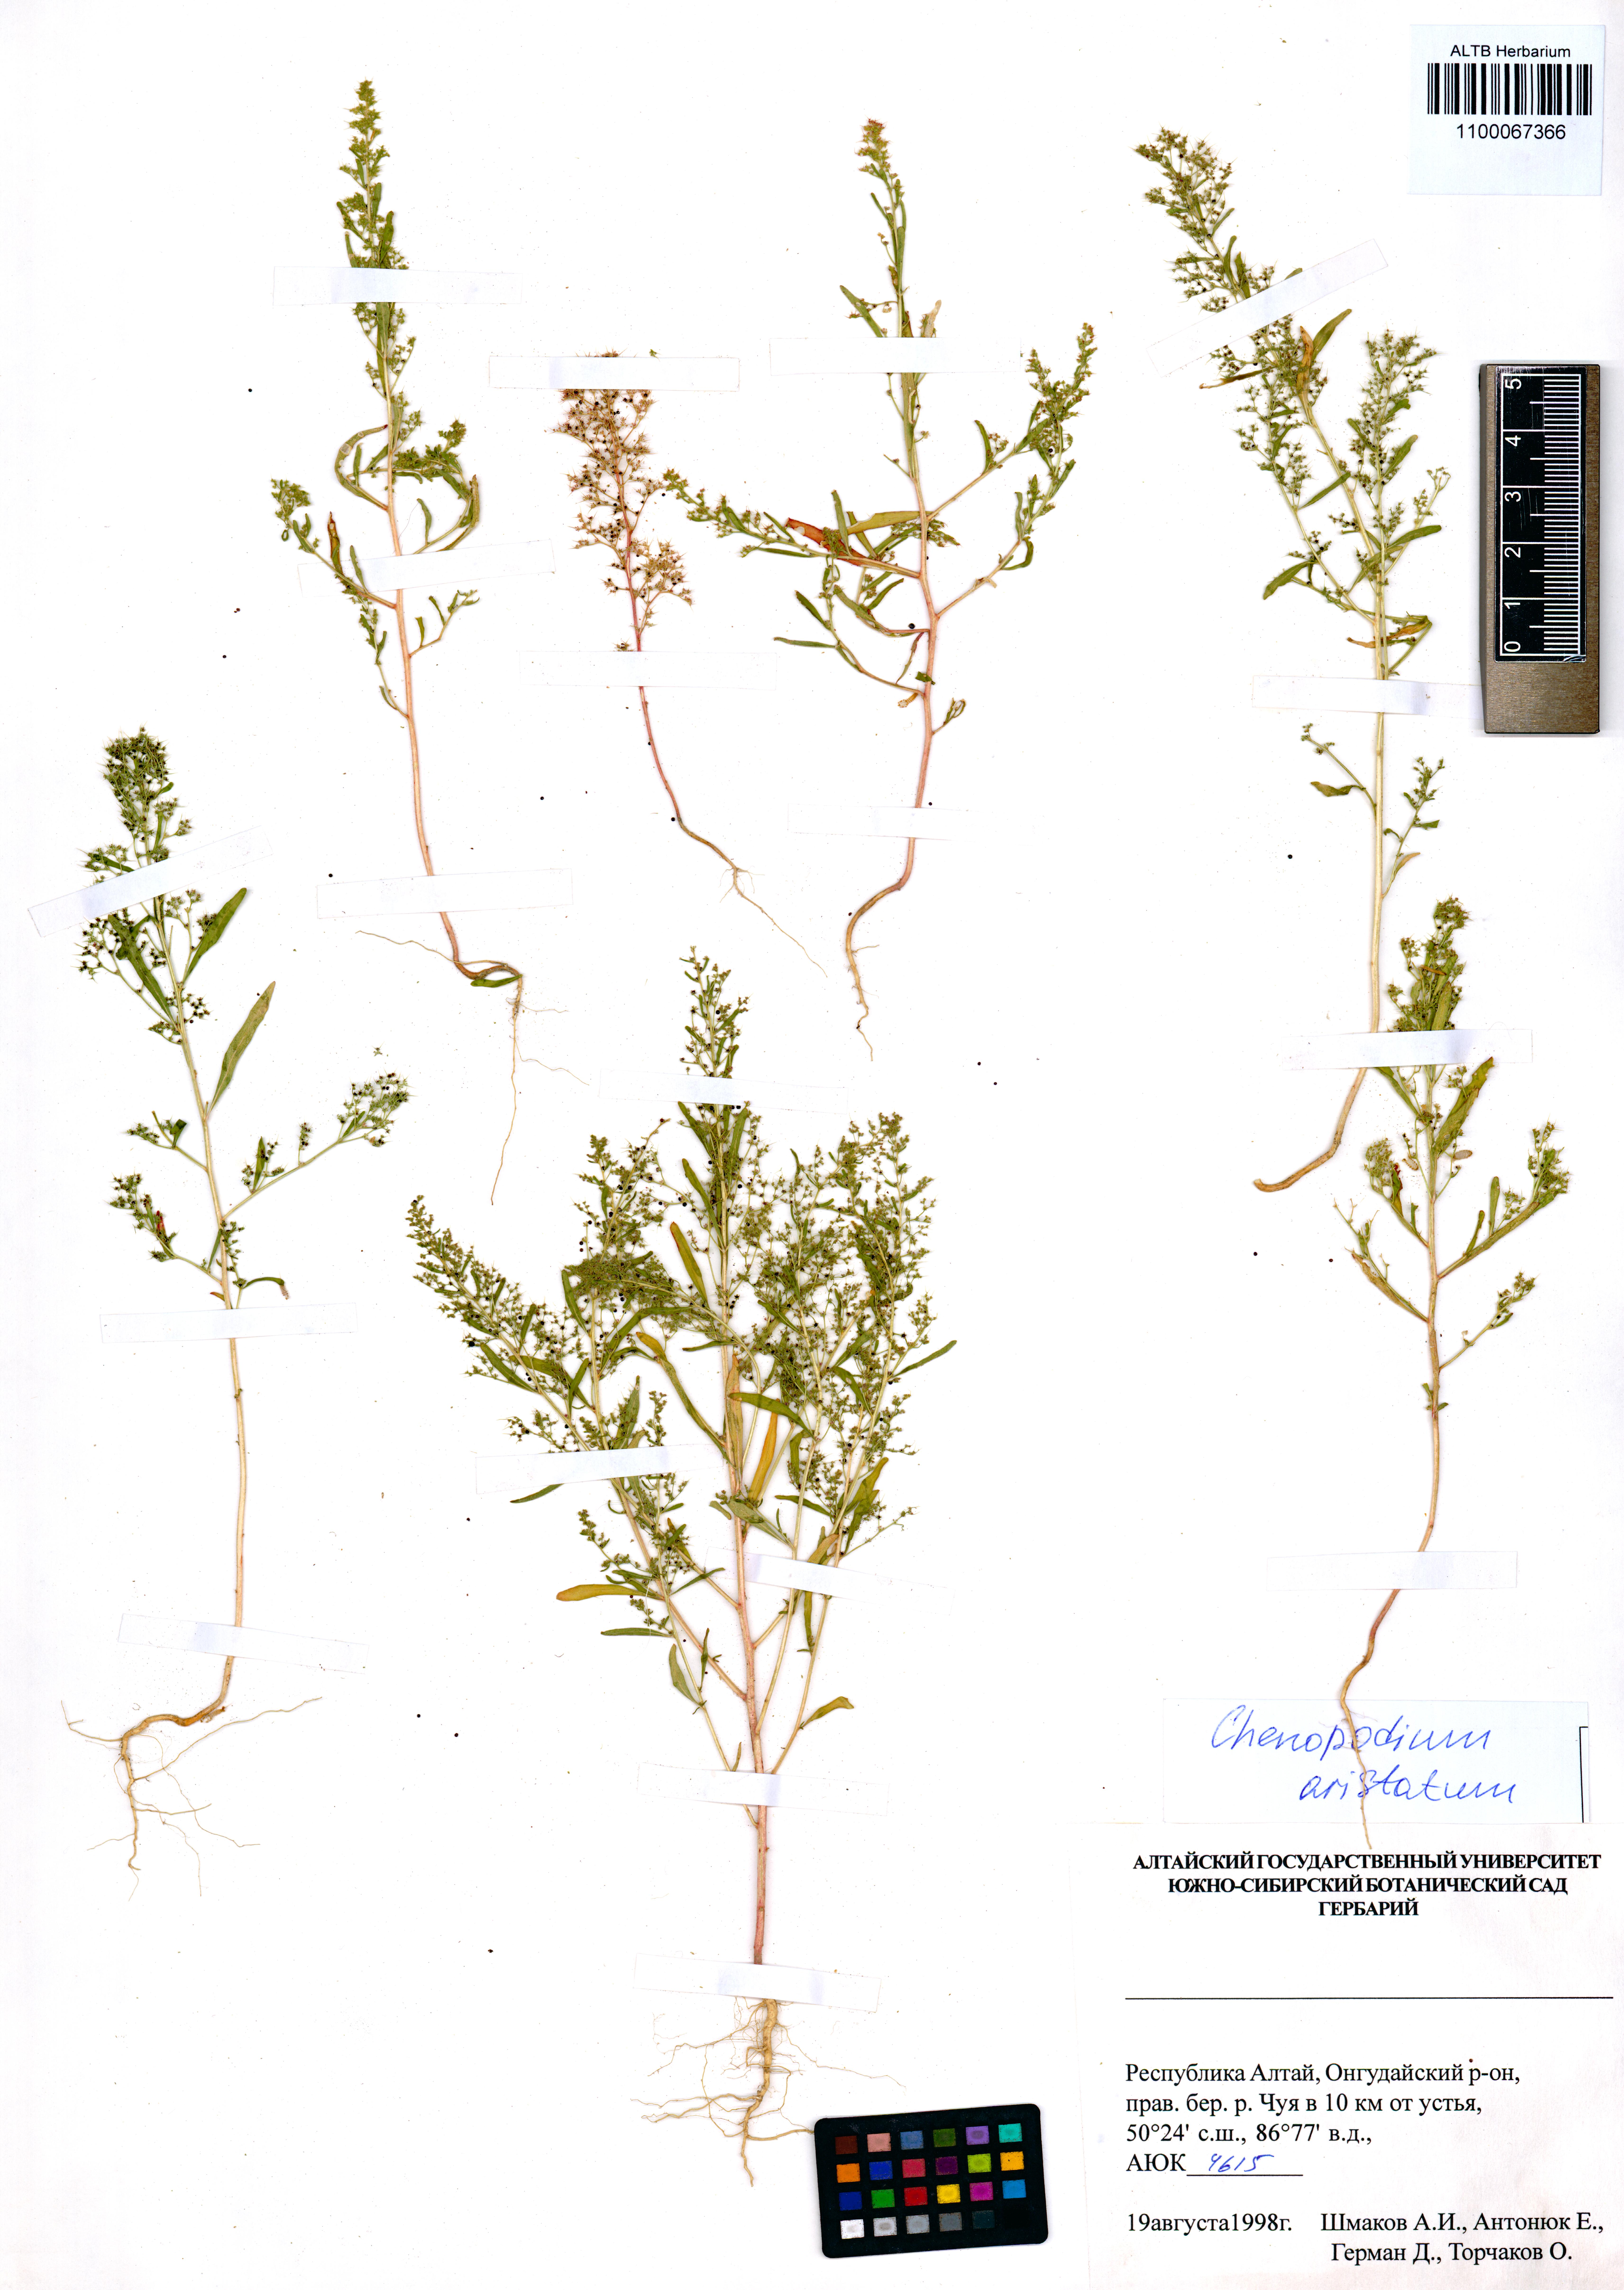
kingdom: Plantae
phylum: Tracheophyta
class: Magnoliopsida
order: Caryophyllales
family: Amaranthaceae
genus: Teloxys
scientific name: Teloxys aristata
